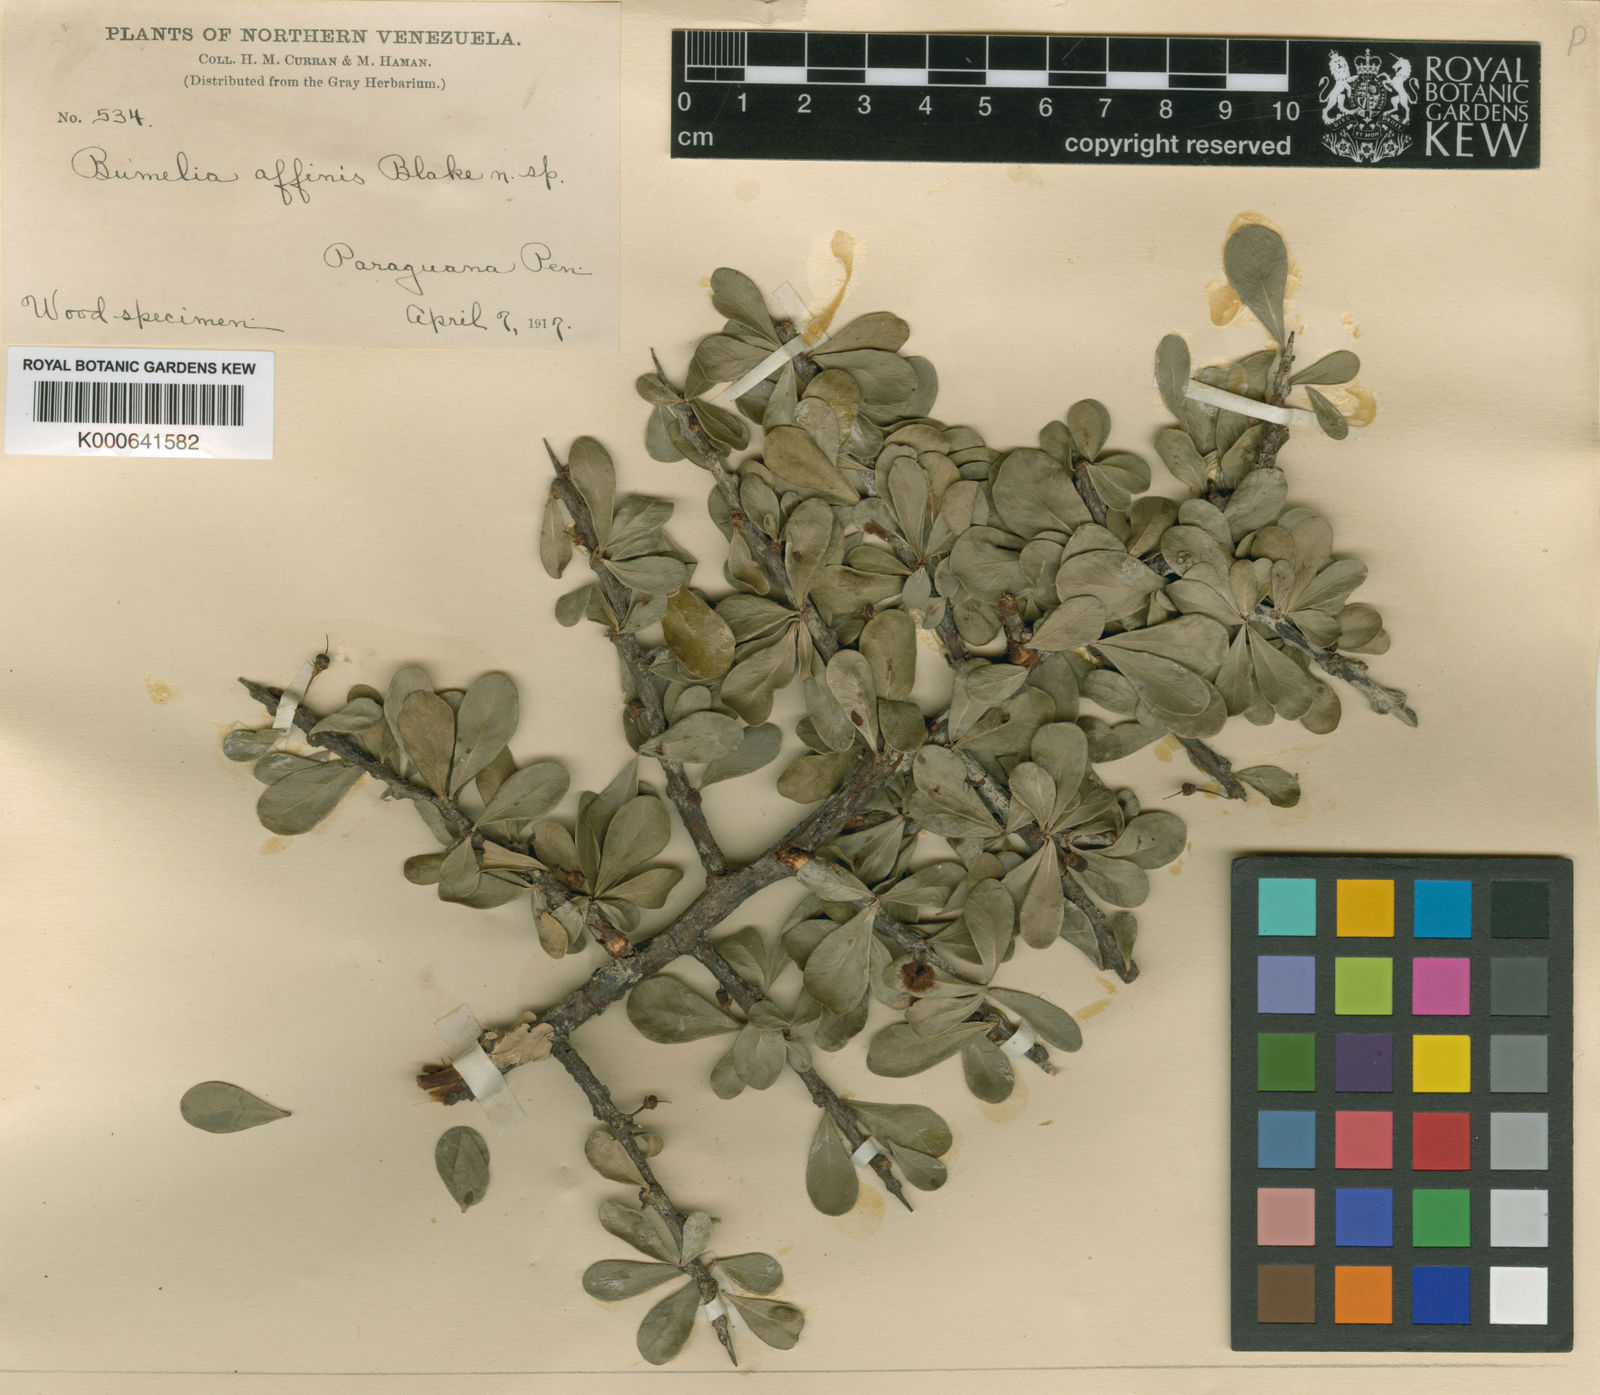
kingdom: Plantae
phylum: Tracheophyta
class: Magnoliopsida
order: Ericales
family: Sapotaceae
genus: Sideroxylon
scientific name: Sideroxylon celastrinum
